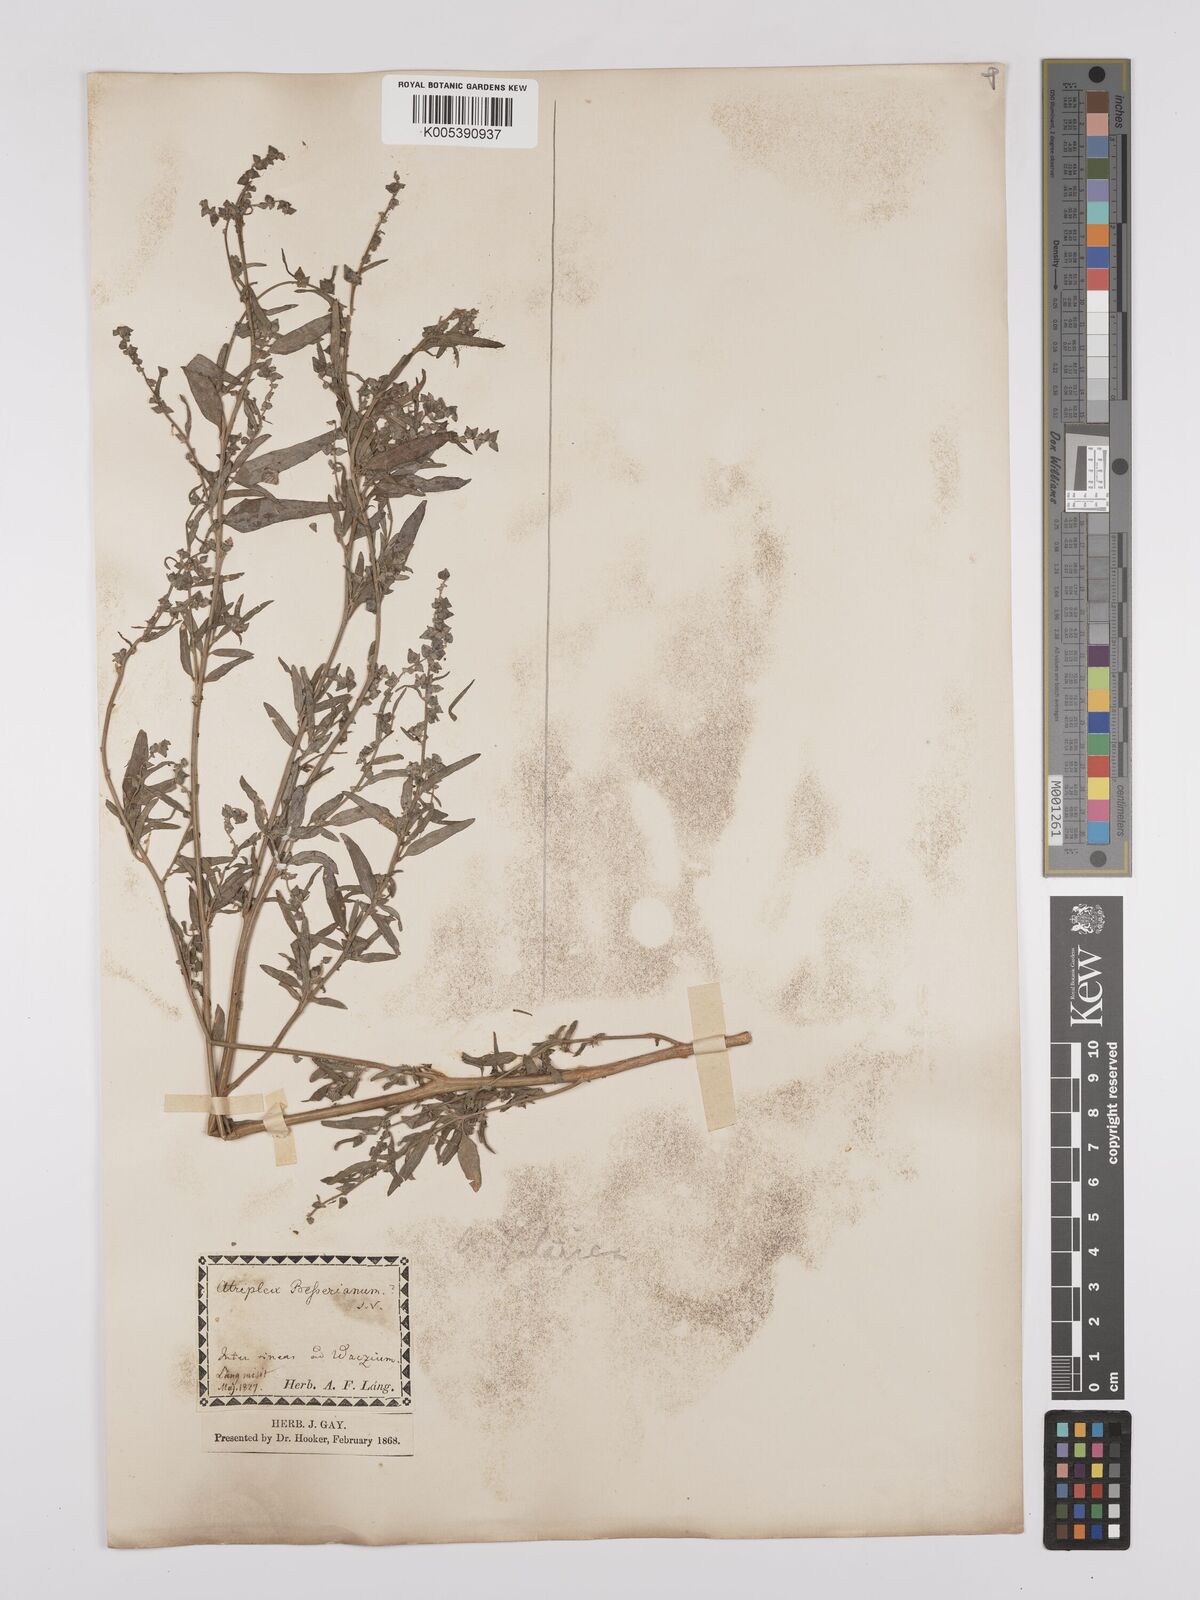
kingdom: Plantae
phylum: Tracheophyta
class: Magnoliopsida
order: Caryophyllales
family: Amaranthaceae
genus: Atriplex
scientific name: Atriplex
